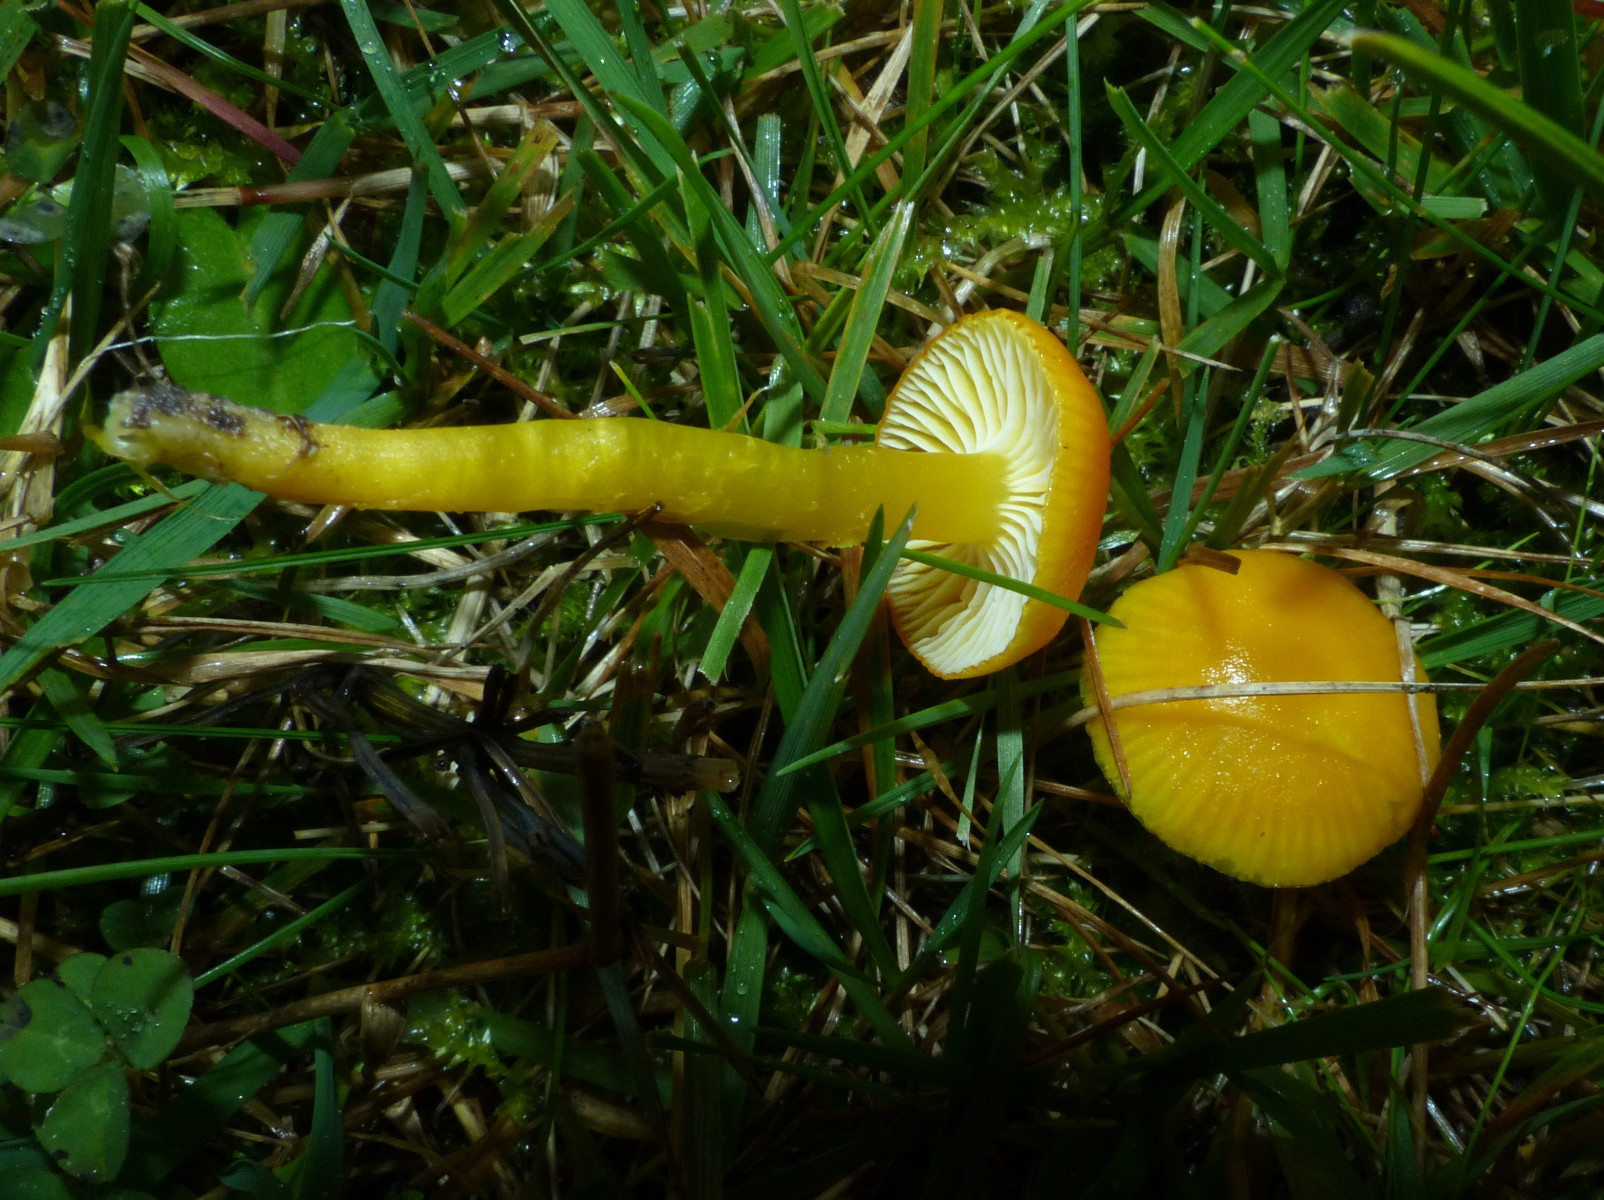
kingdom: Fungi
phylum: Basidiomycota
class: Agaricomycetes
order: Agaricales
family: Hygrophoraceae
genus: Hygrocybe
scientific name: Hygrocybe ceracea
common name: voksgul vokshat
